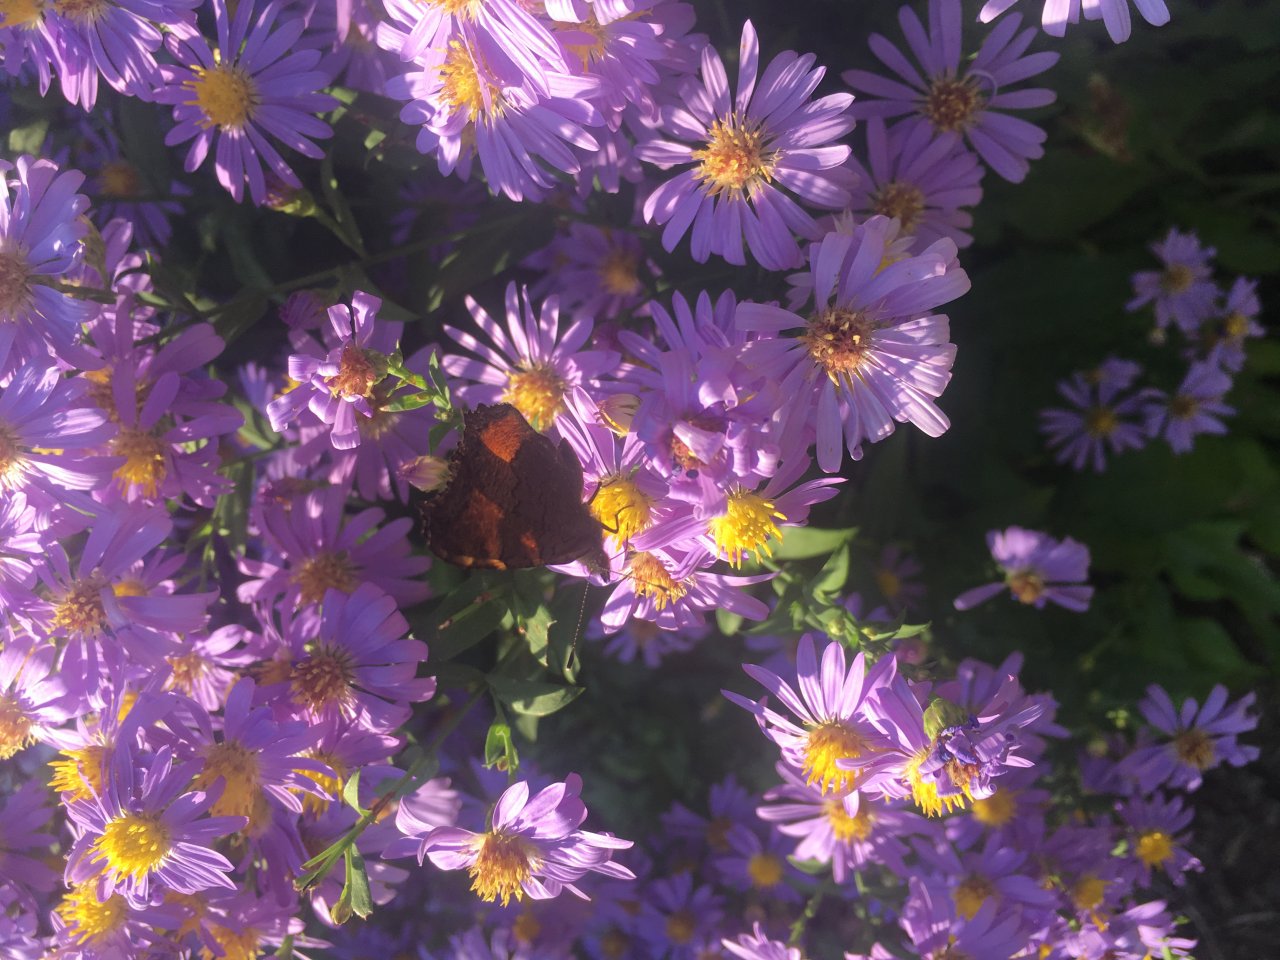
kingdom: Animalia
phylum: Arthropoda
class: Insecta
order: Lepidoptera
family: Nymphalidae
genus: Aglais
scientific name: Aglais milberti
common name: Milbert's Tortoiseshell
